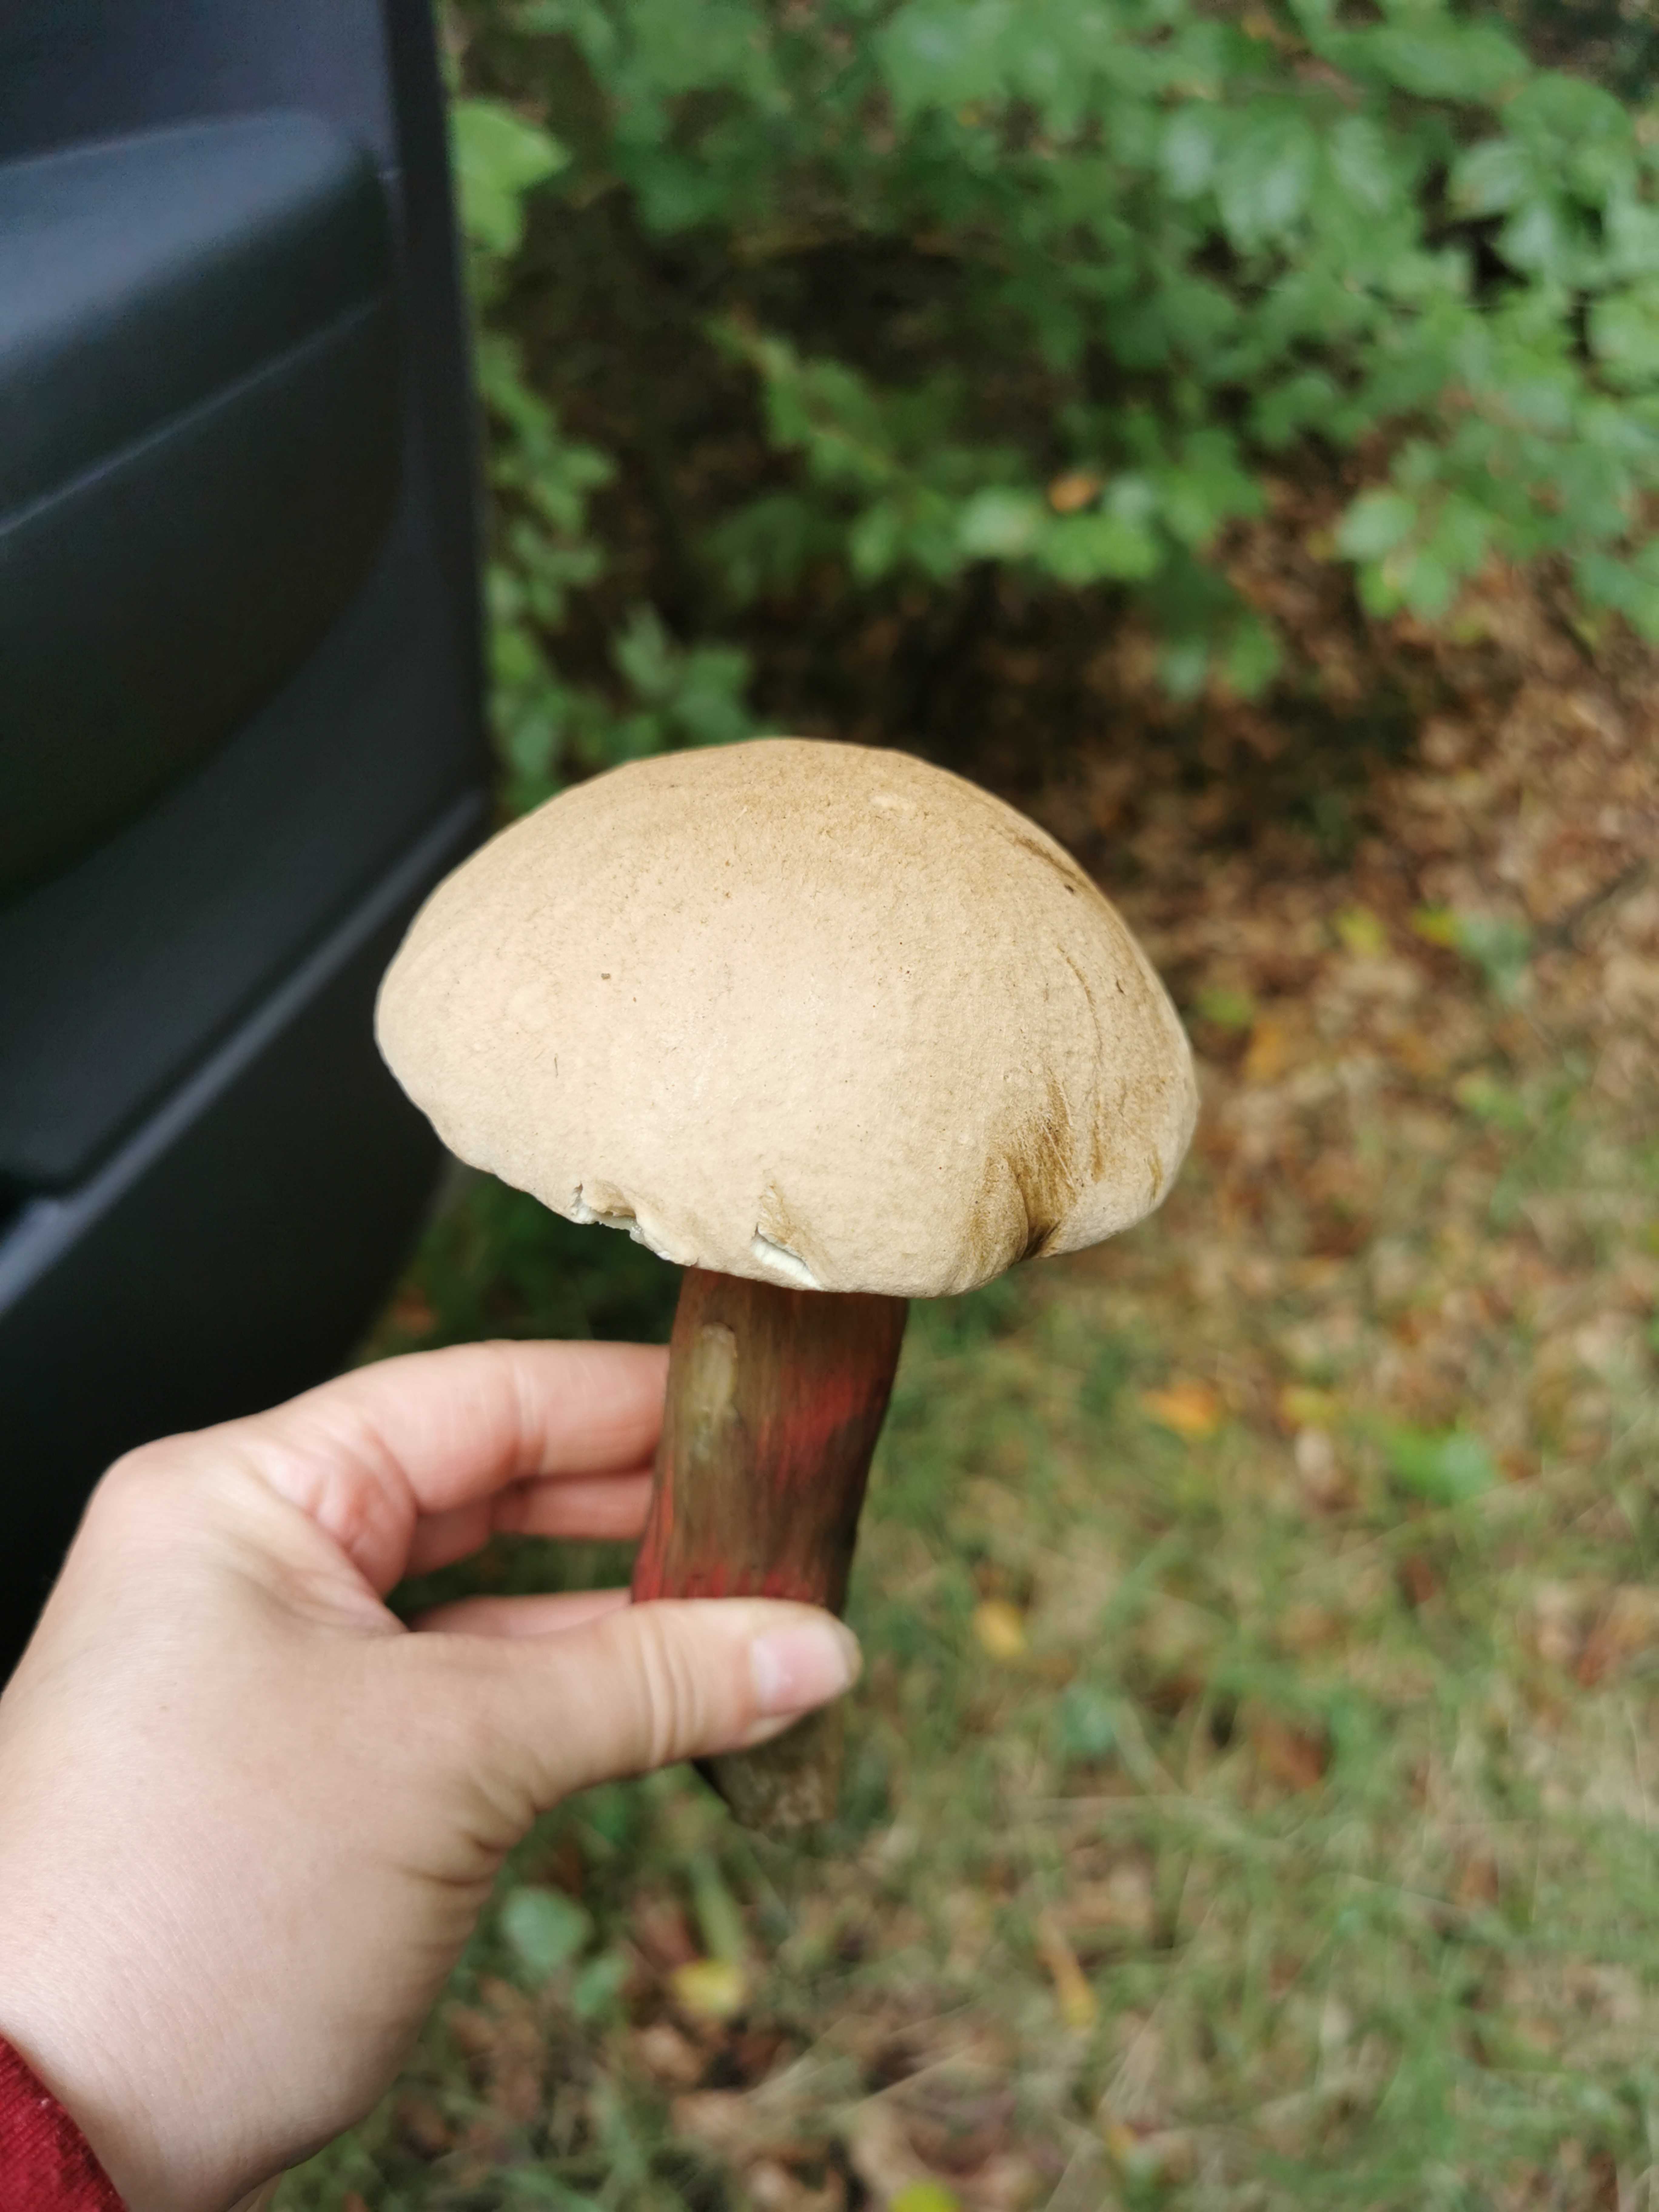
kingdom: Fungi
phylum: Basidiomycota
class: Agaricomycetes
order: Boletales
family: Boletaceae
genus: Caloboletus
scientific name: Caloboletus calopus
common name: skønfodet rørhat
